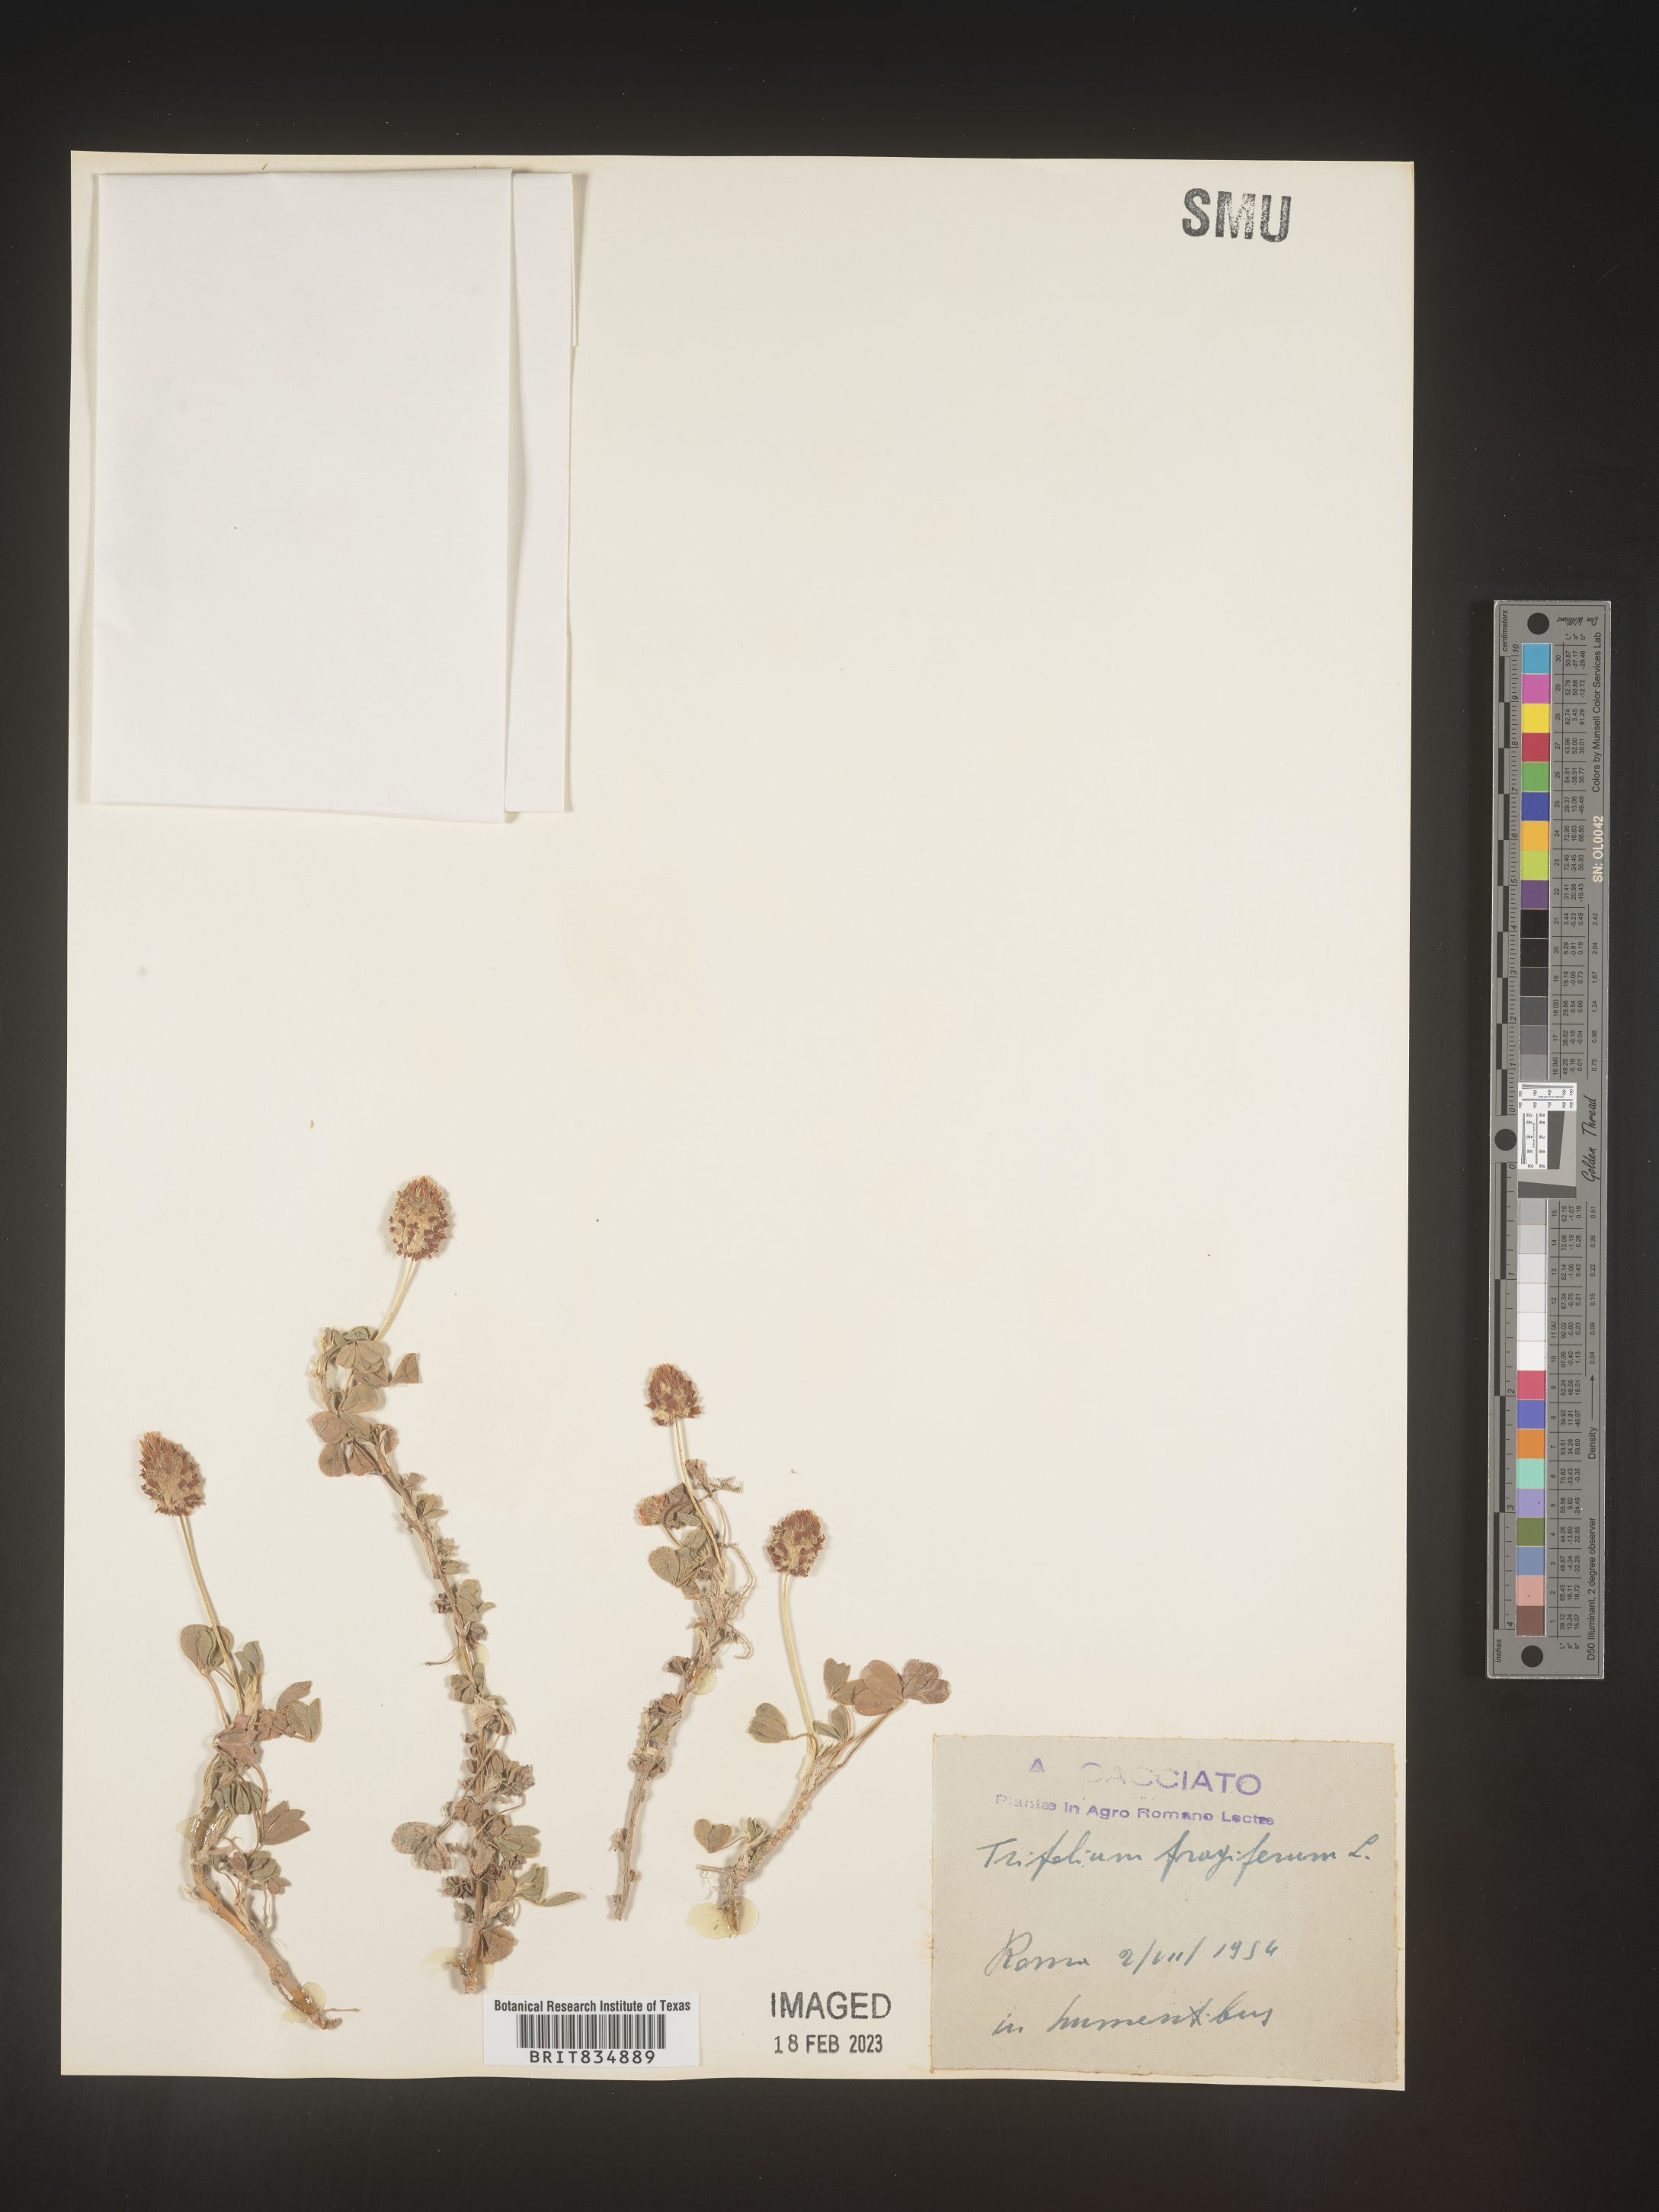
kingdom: Plantae
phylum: Tracheophyta
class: Magnoliopsida
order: Fabales
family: Fabaceae
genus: Trifolium
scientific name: Trifolium
